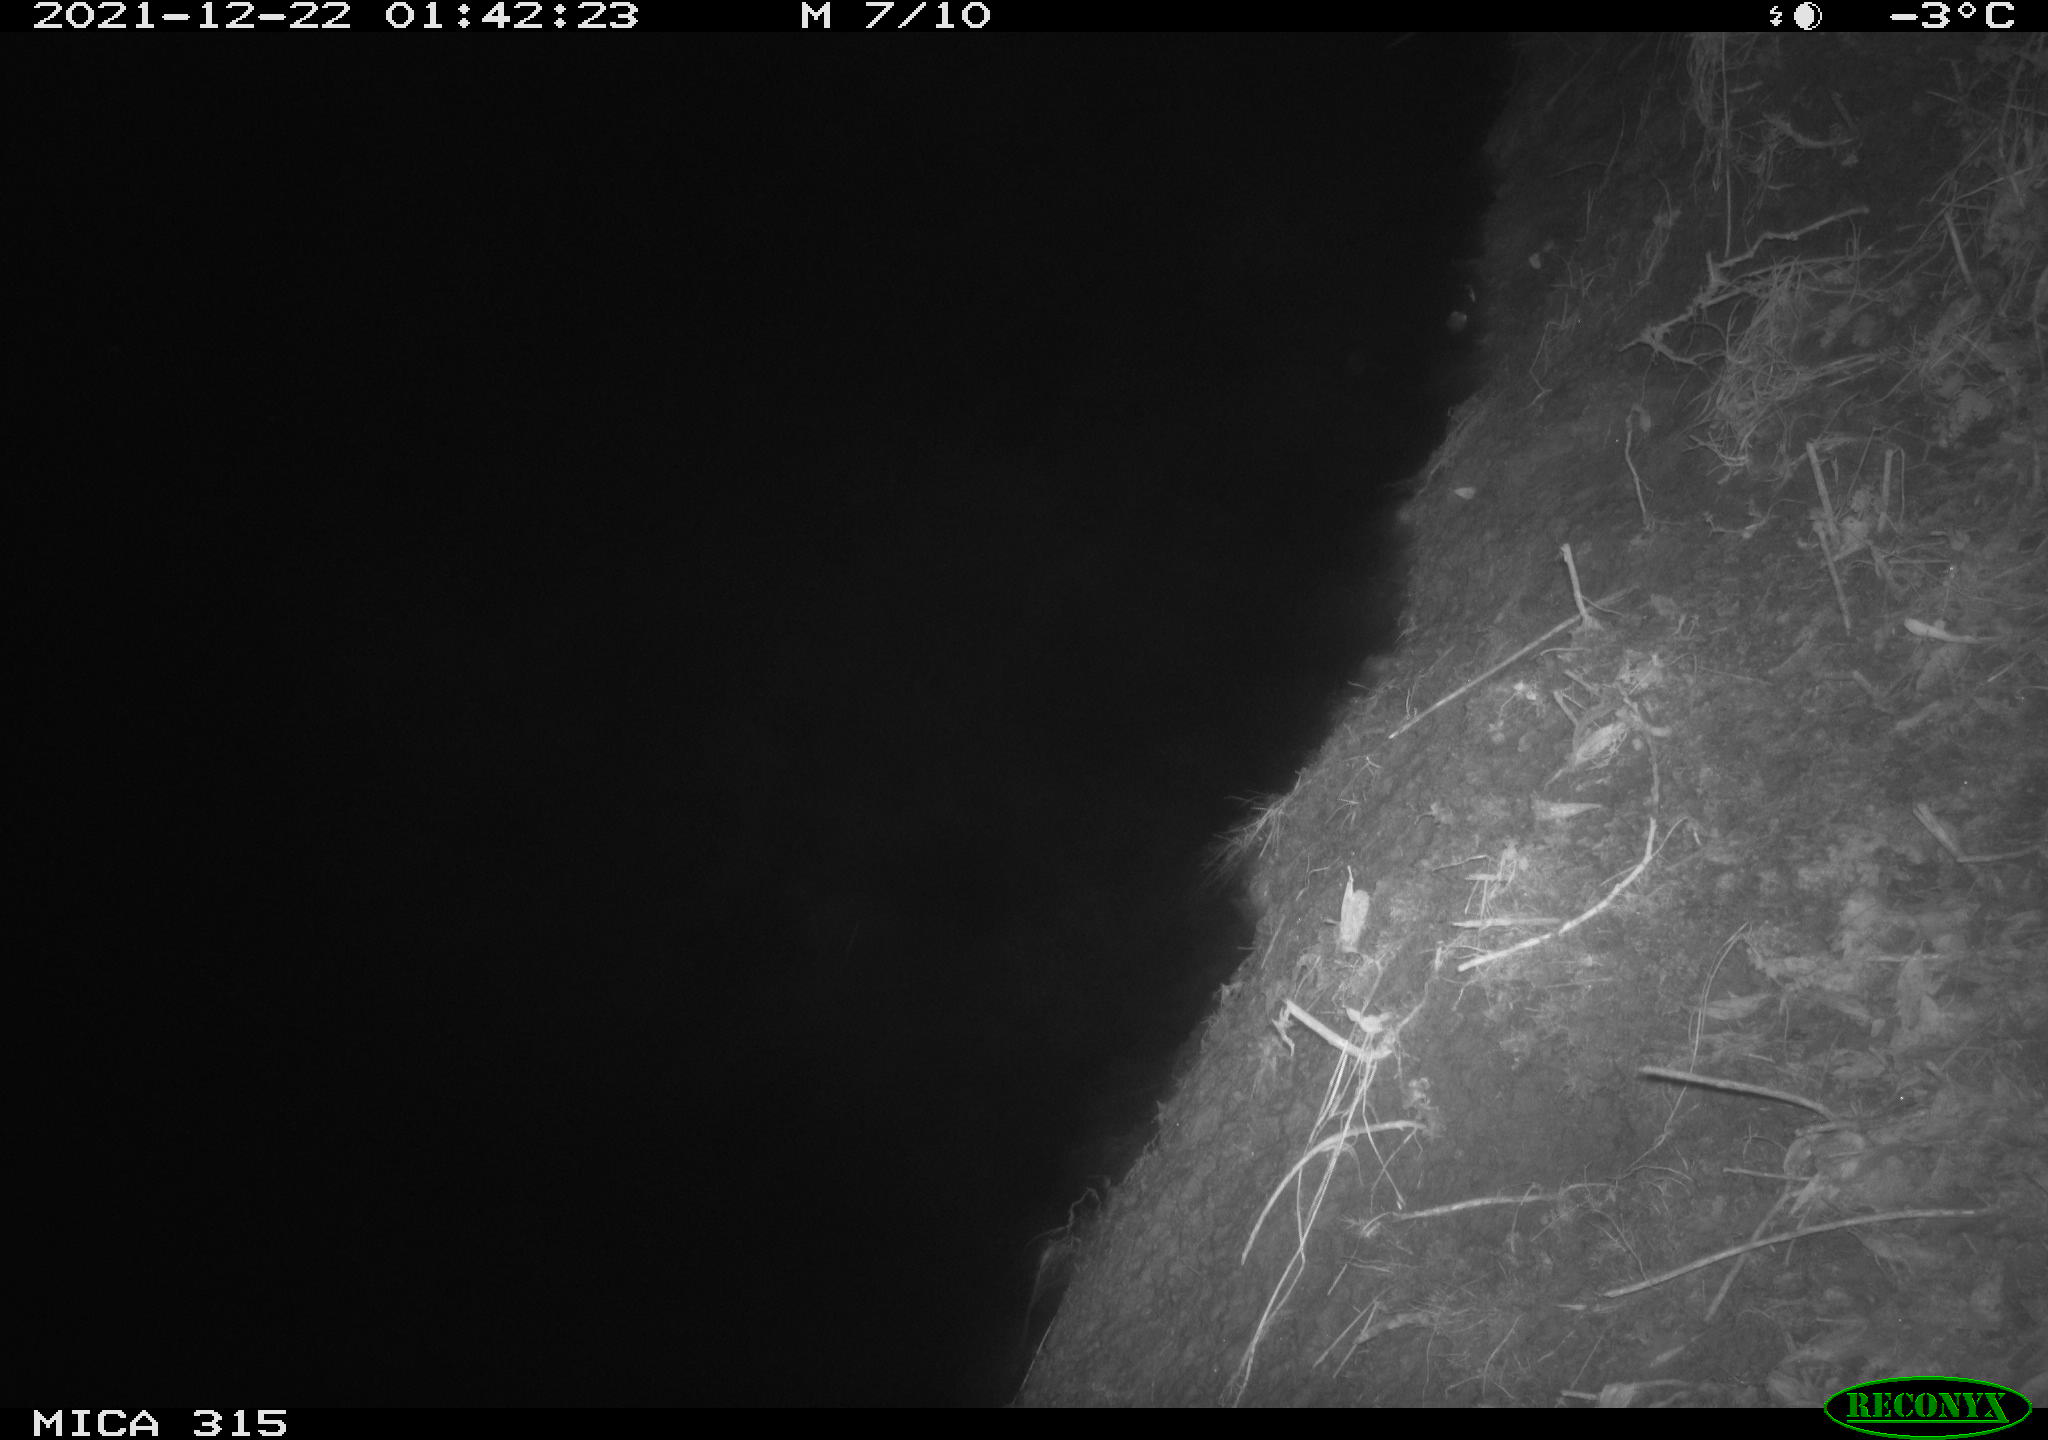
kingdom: Animalia
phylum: Chordata
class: Aves
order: Anseriformes
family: Anatidae
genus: Anas
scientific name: Anas
